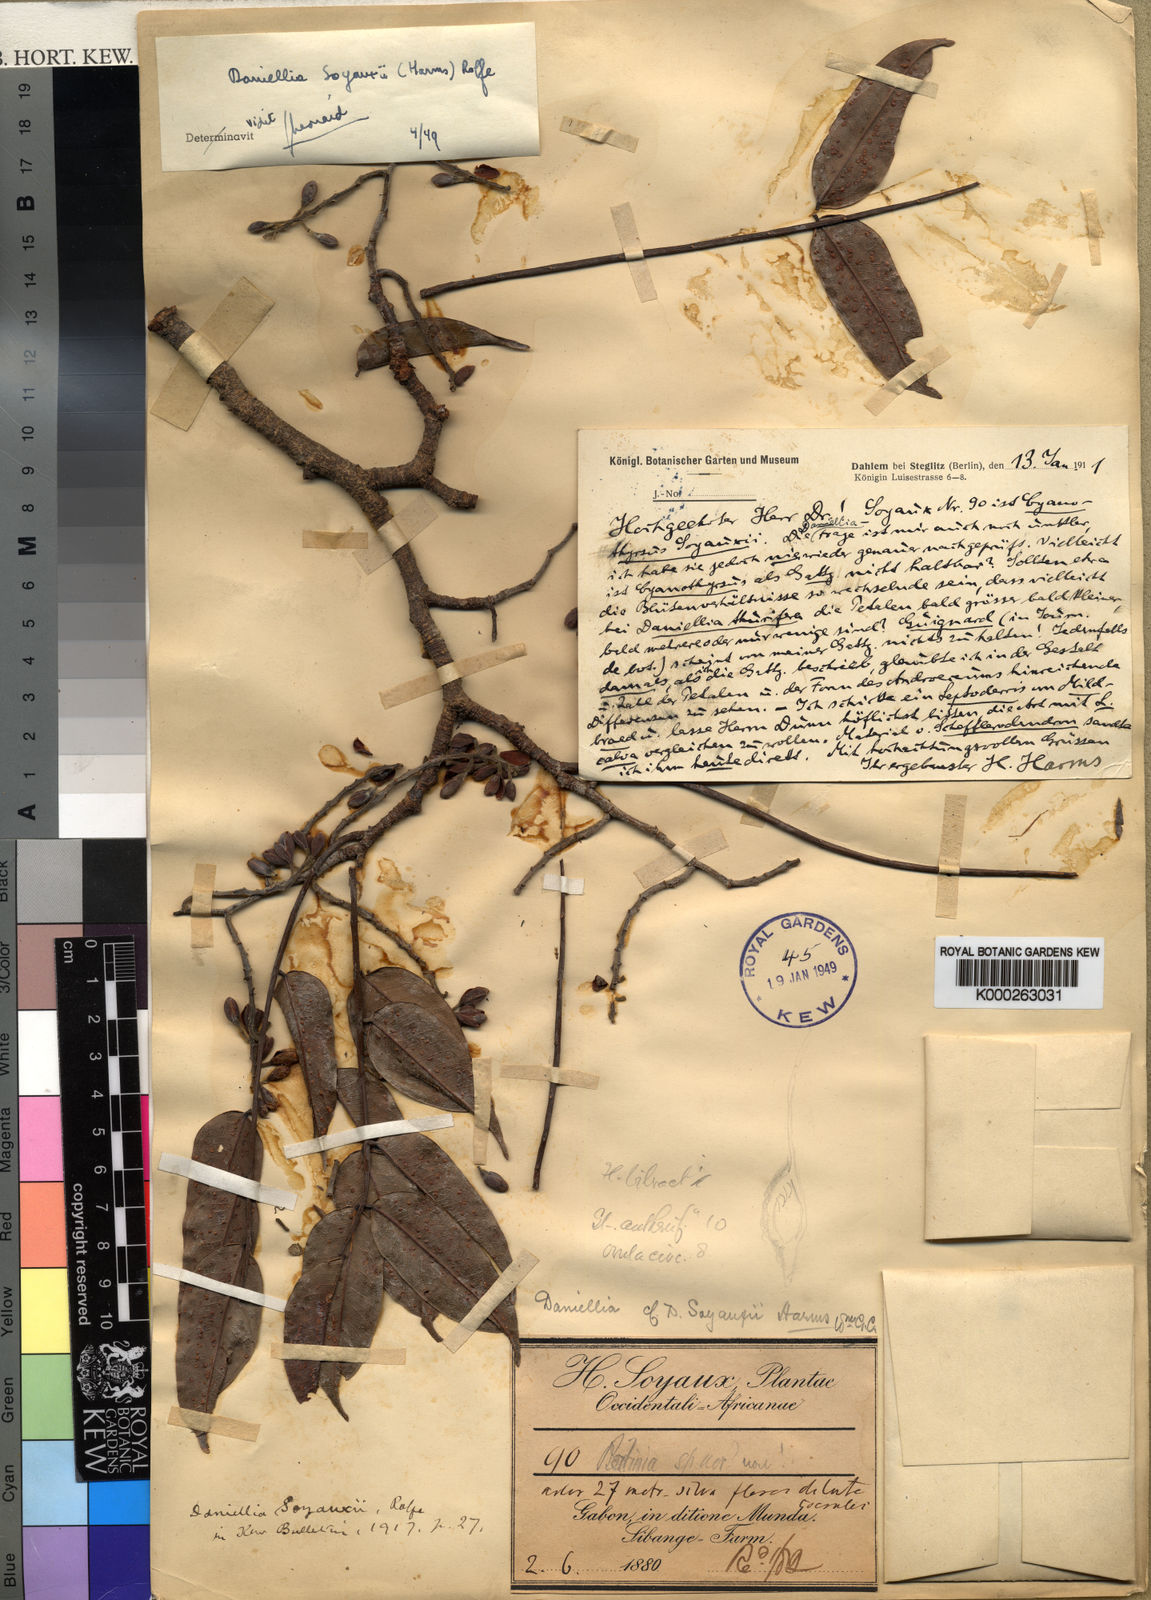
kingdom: Plantae
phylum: Tracheophyta
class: Magnoliopsida
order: Fabales
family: Fabaceae
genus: Daniellia
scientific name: Daniellia soyauxii
